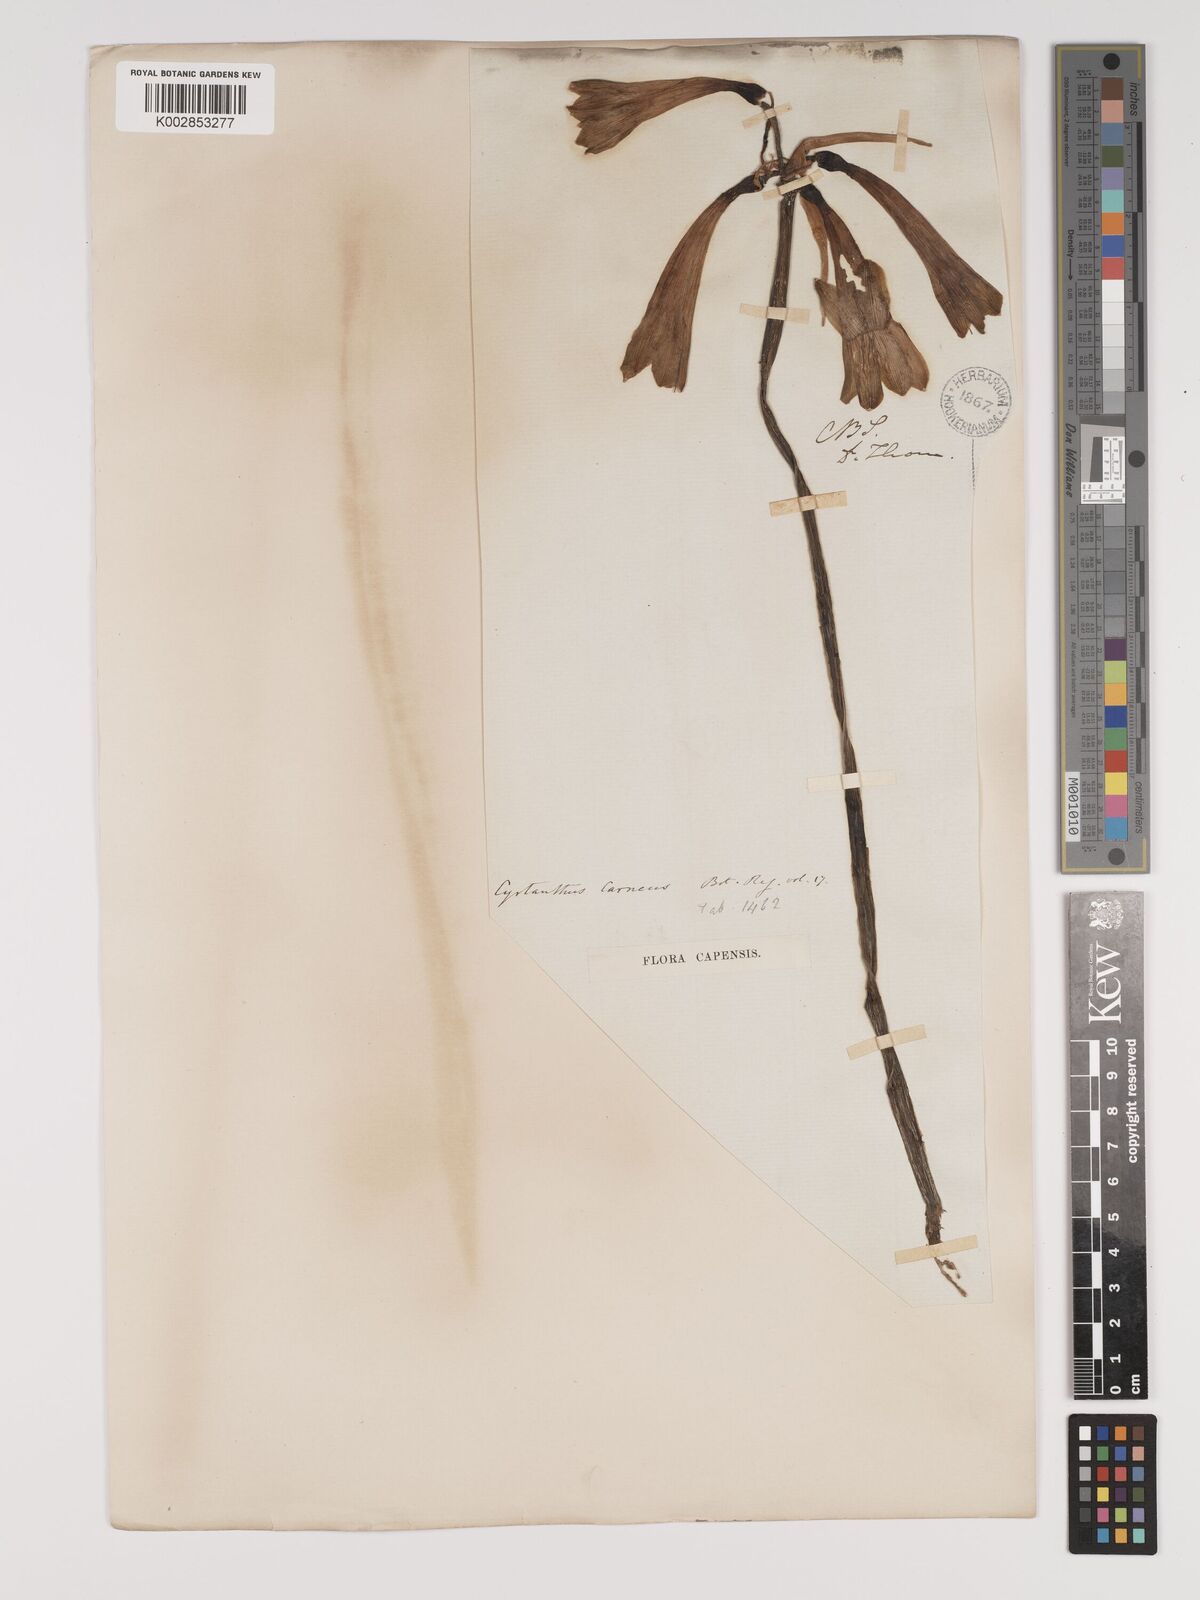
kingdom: Plantae
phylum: Tracheophyta
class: Liliopsida
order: Asparagales
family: Amaryllidaceae
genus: Cyrtanthus
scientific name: Cyrtanthus carneus
